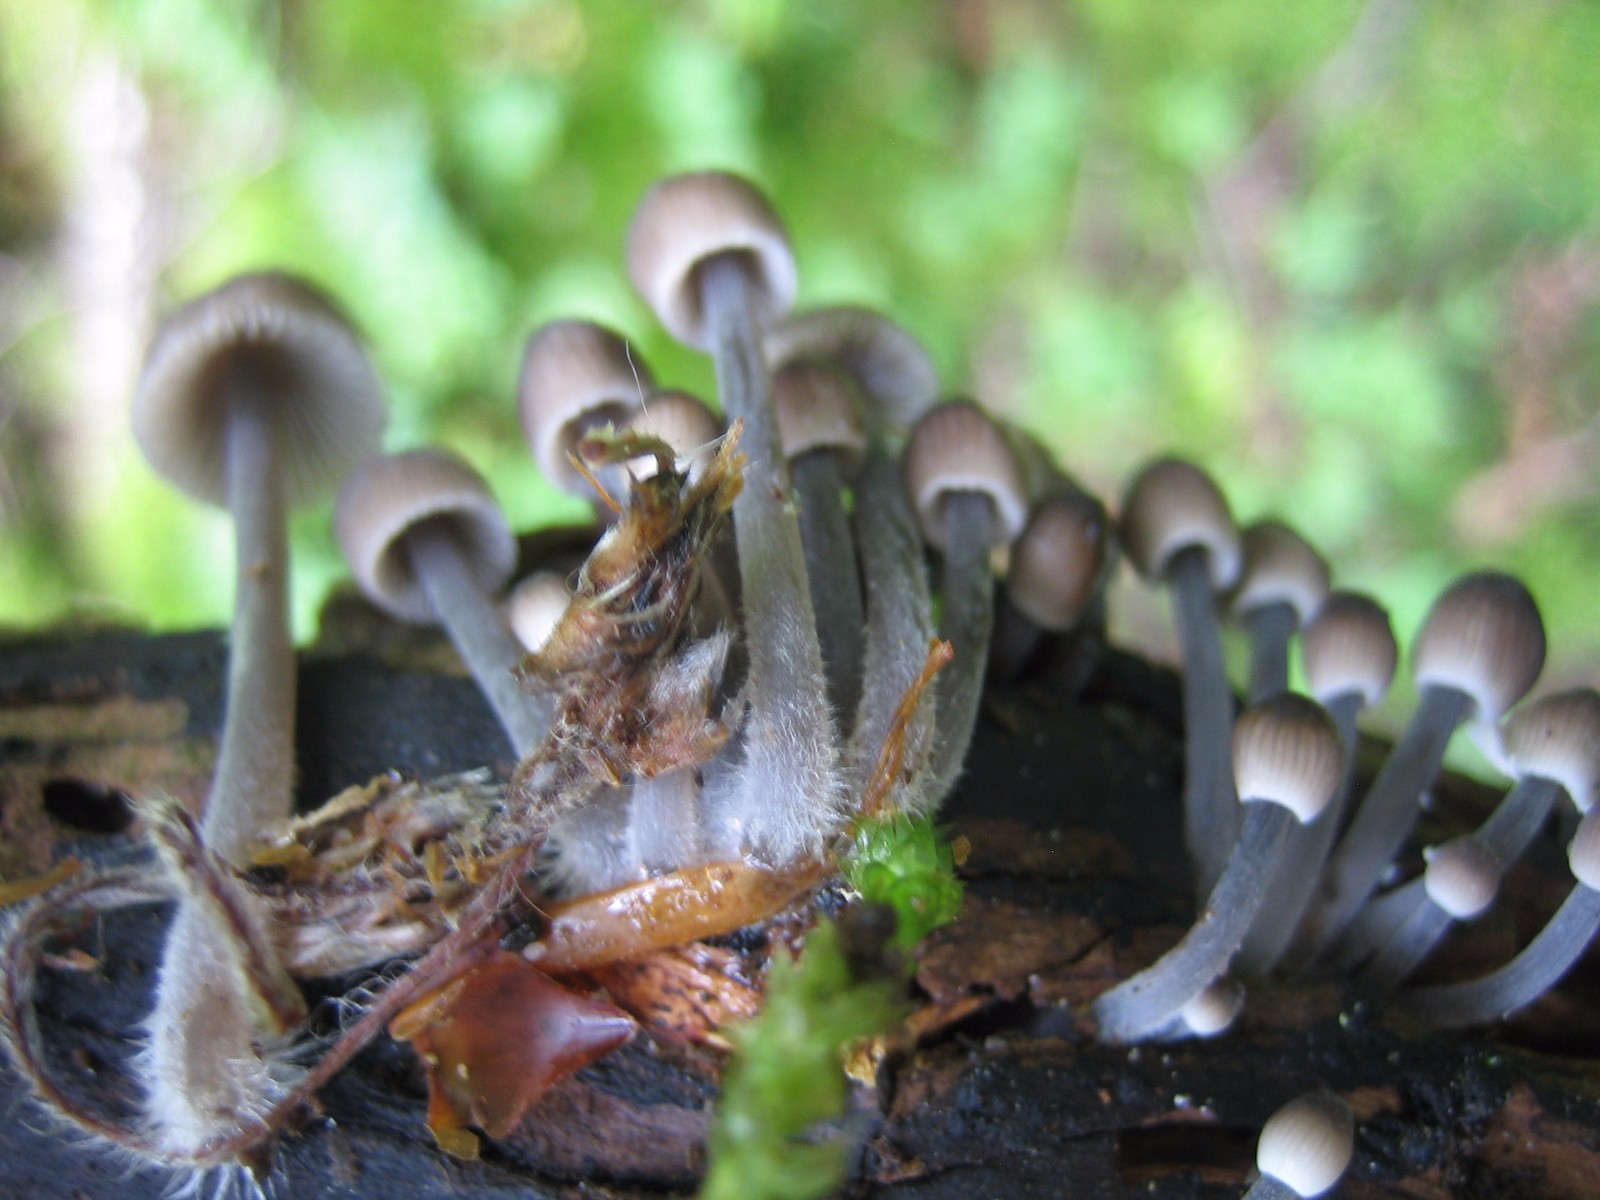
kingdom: Fungi
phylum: Basidiomycota
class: Agaricomycetes
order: Agaricales
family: Mycenaceae
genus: Mycena
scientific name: Mycena abramsii
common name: sommer-huesvamp
